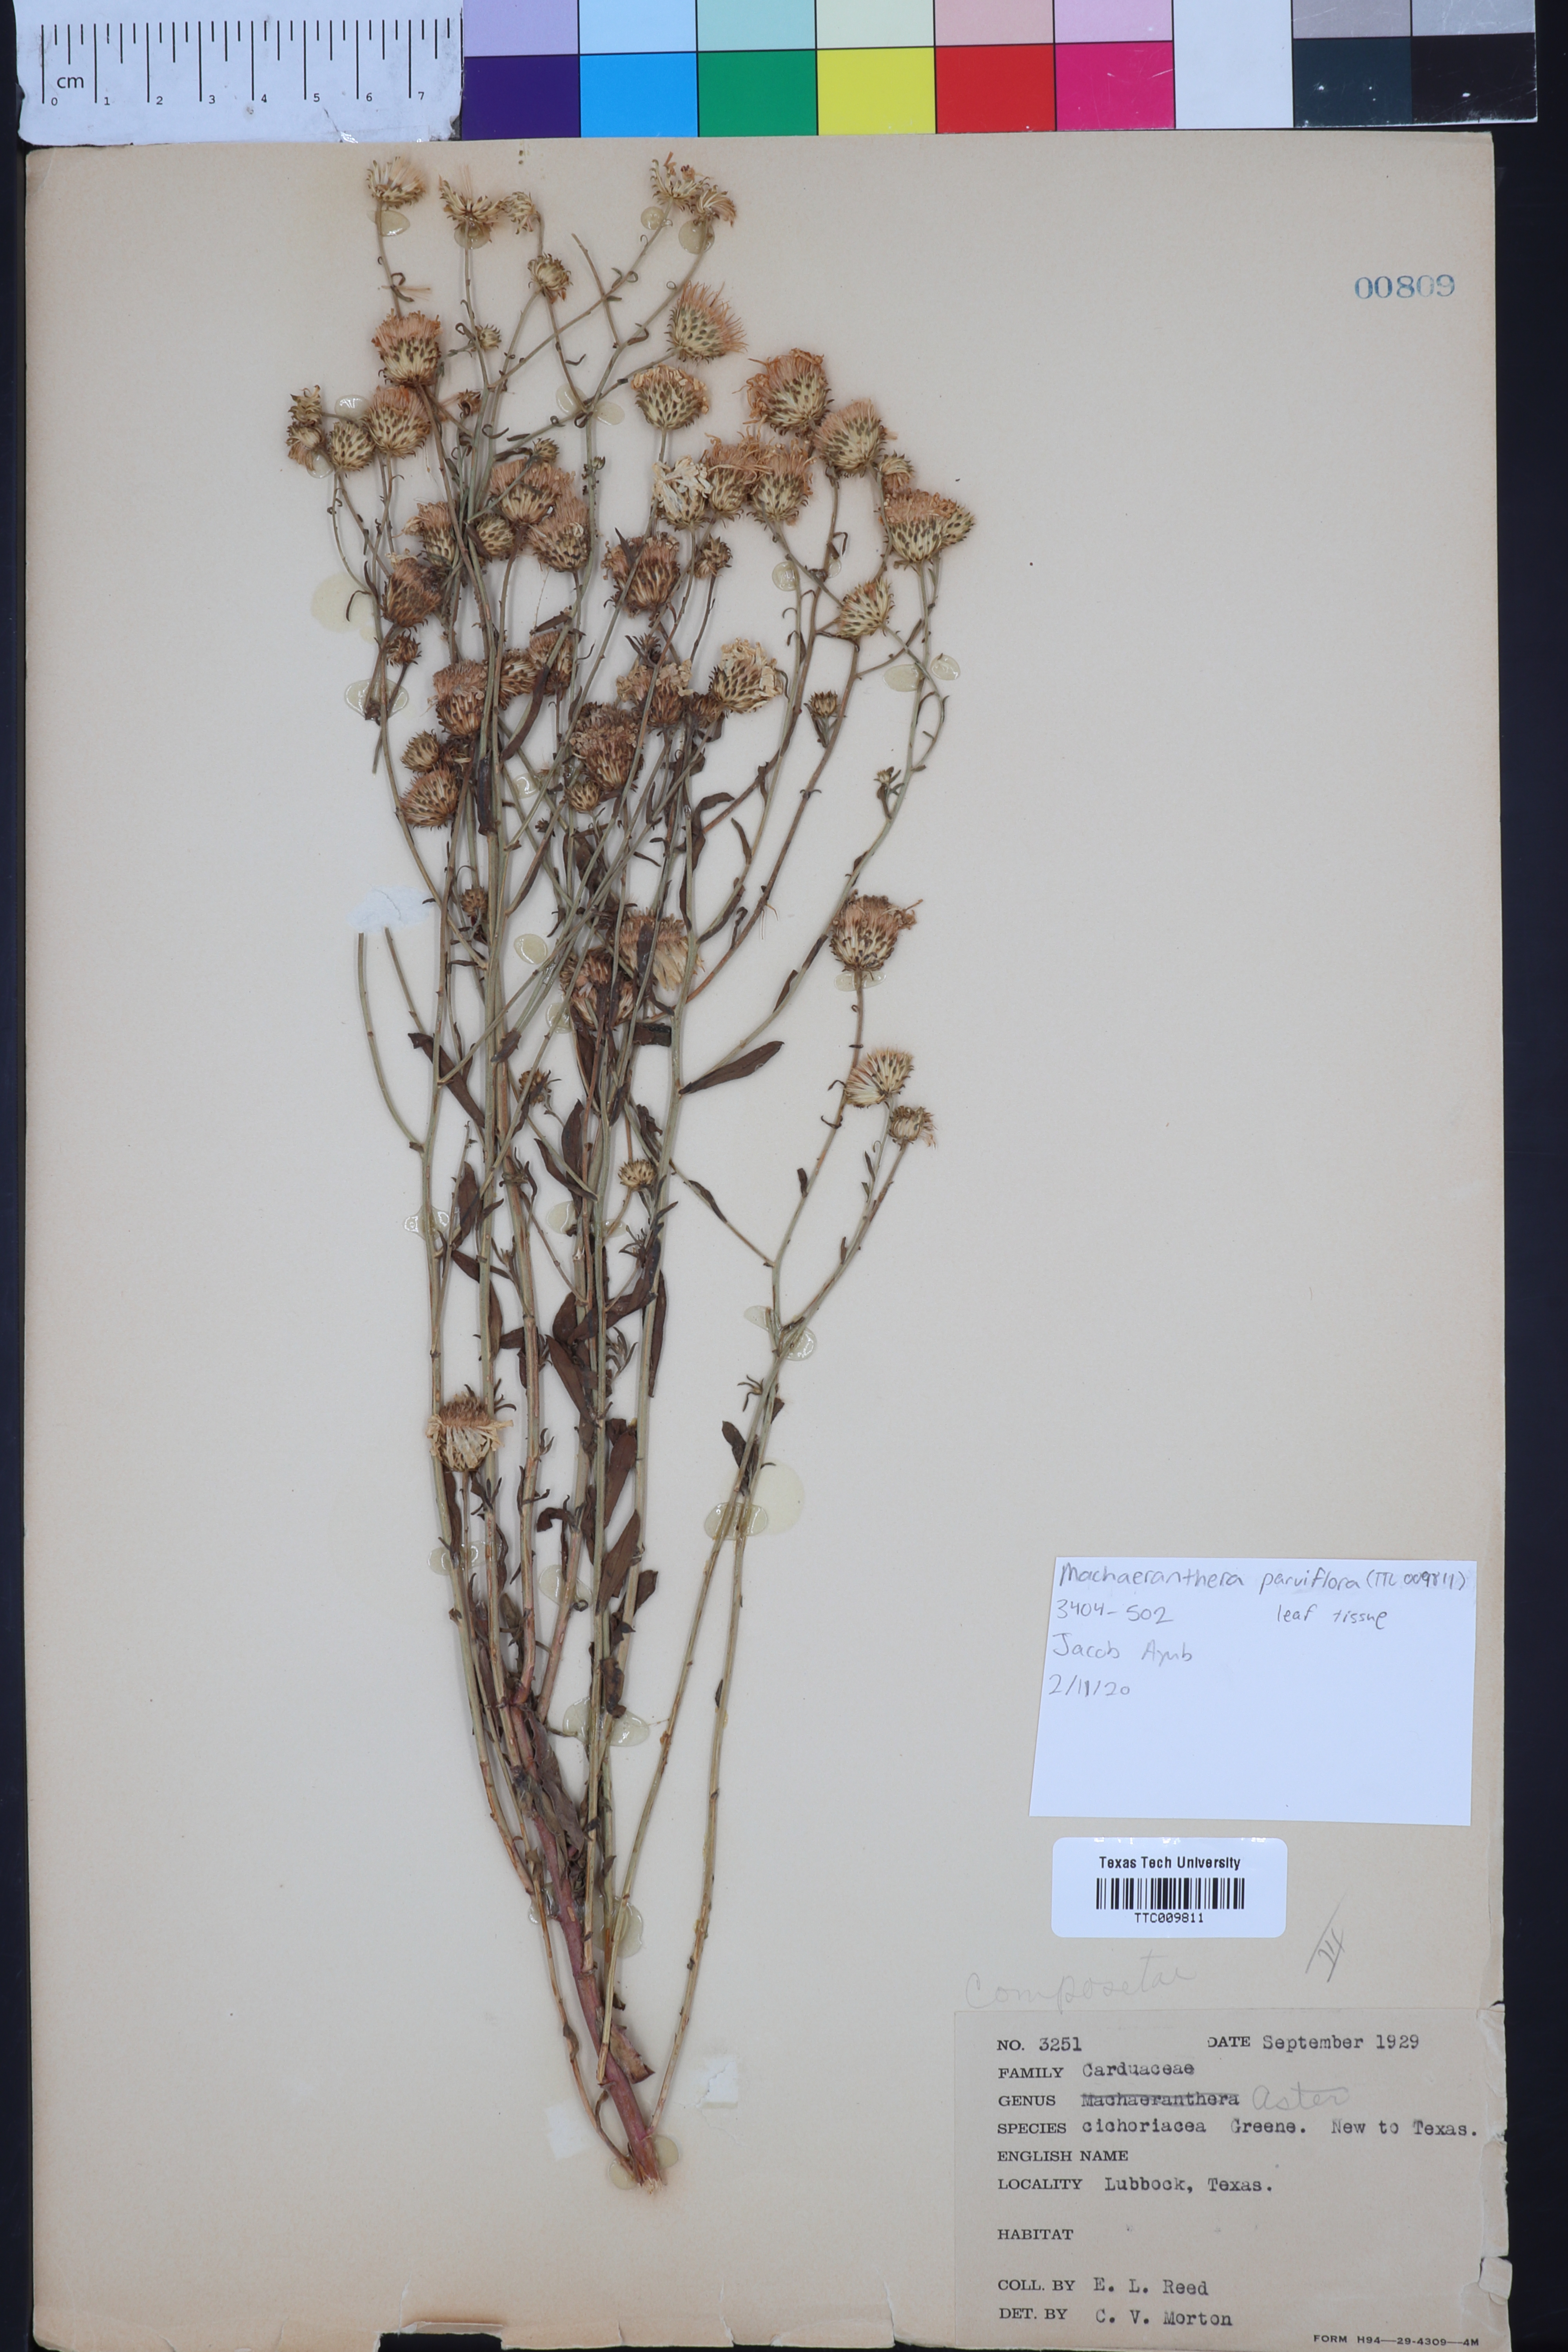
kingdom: Plantae
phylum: Tracheophyta
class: Magnoliopsida
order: Asterales
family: Asteraceae
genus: Dieteria
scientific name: Dieteria canescens
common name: Hoary-aster
